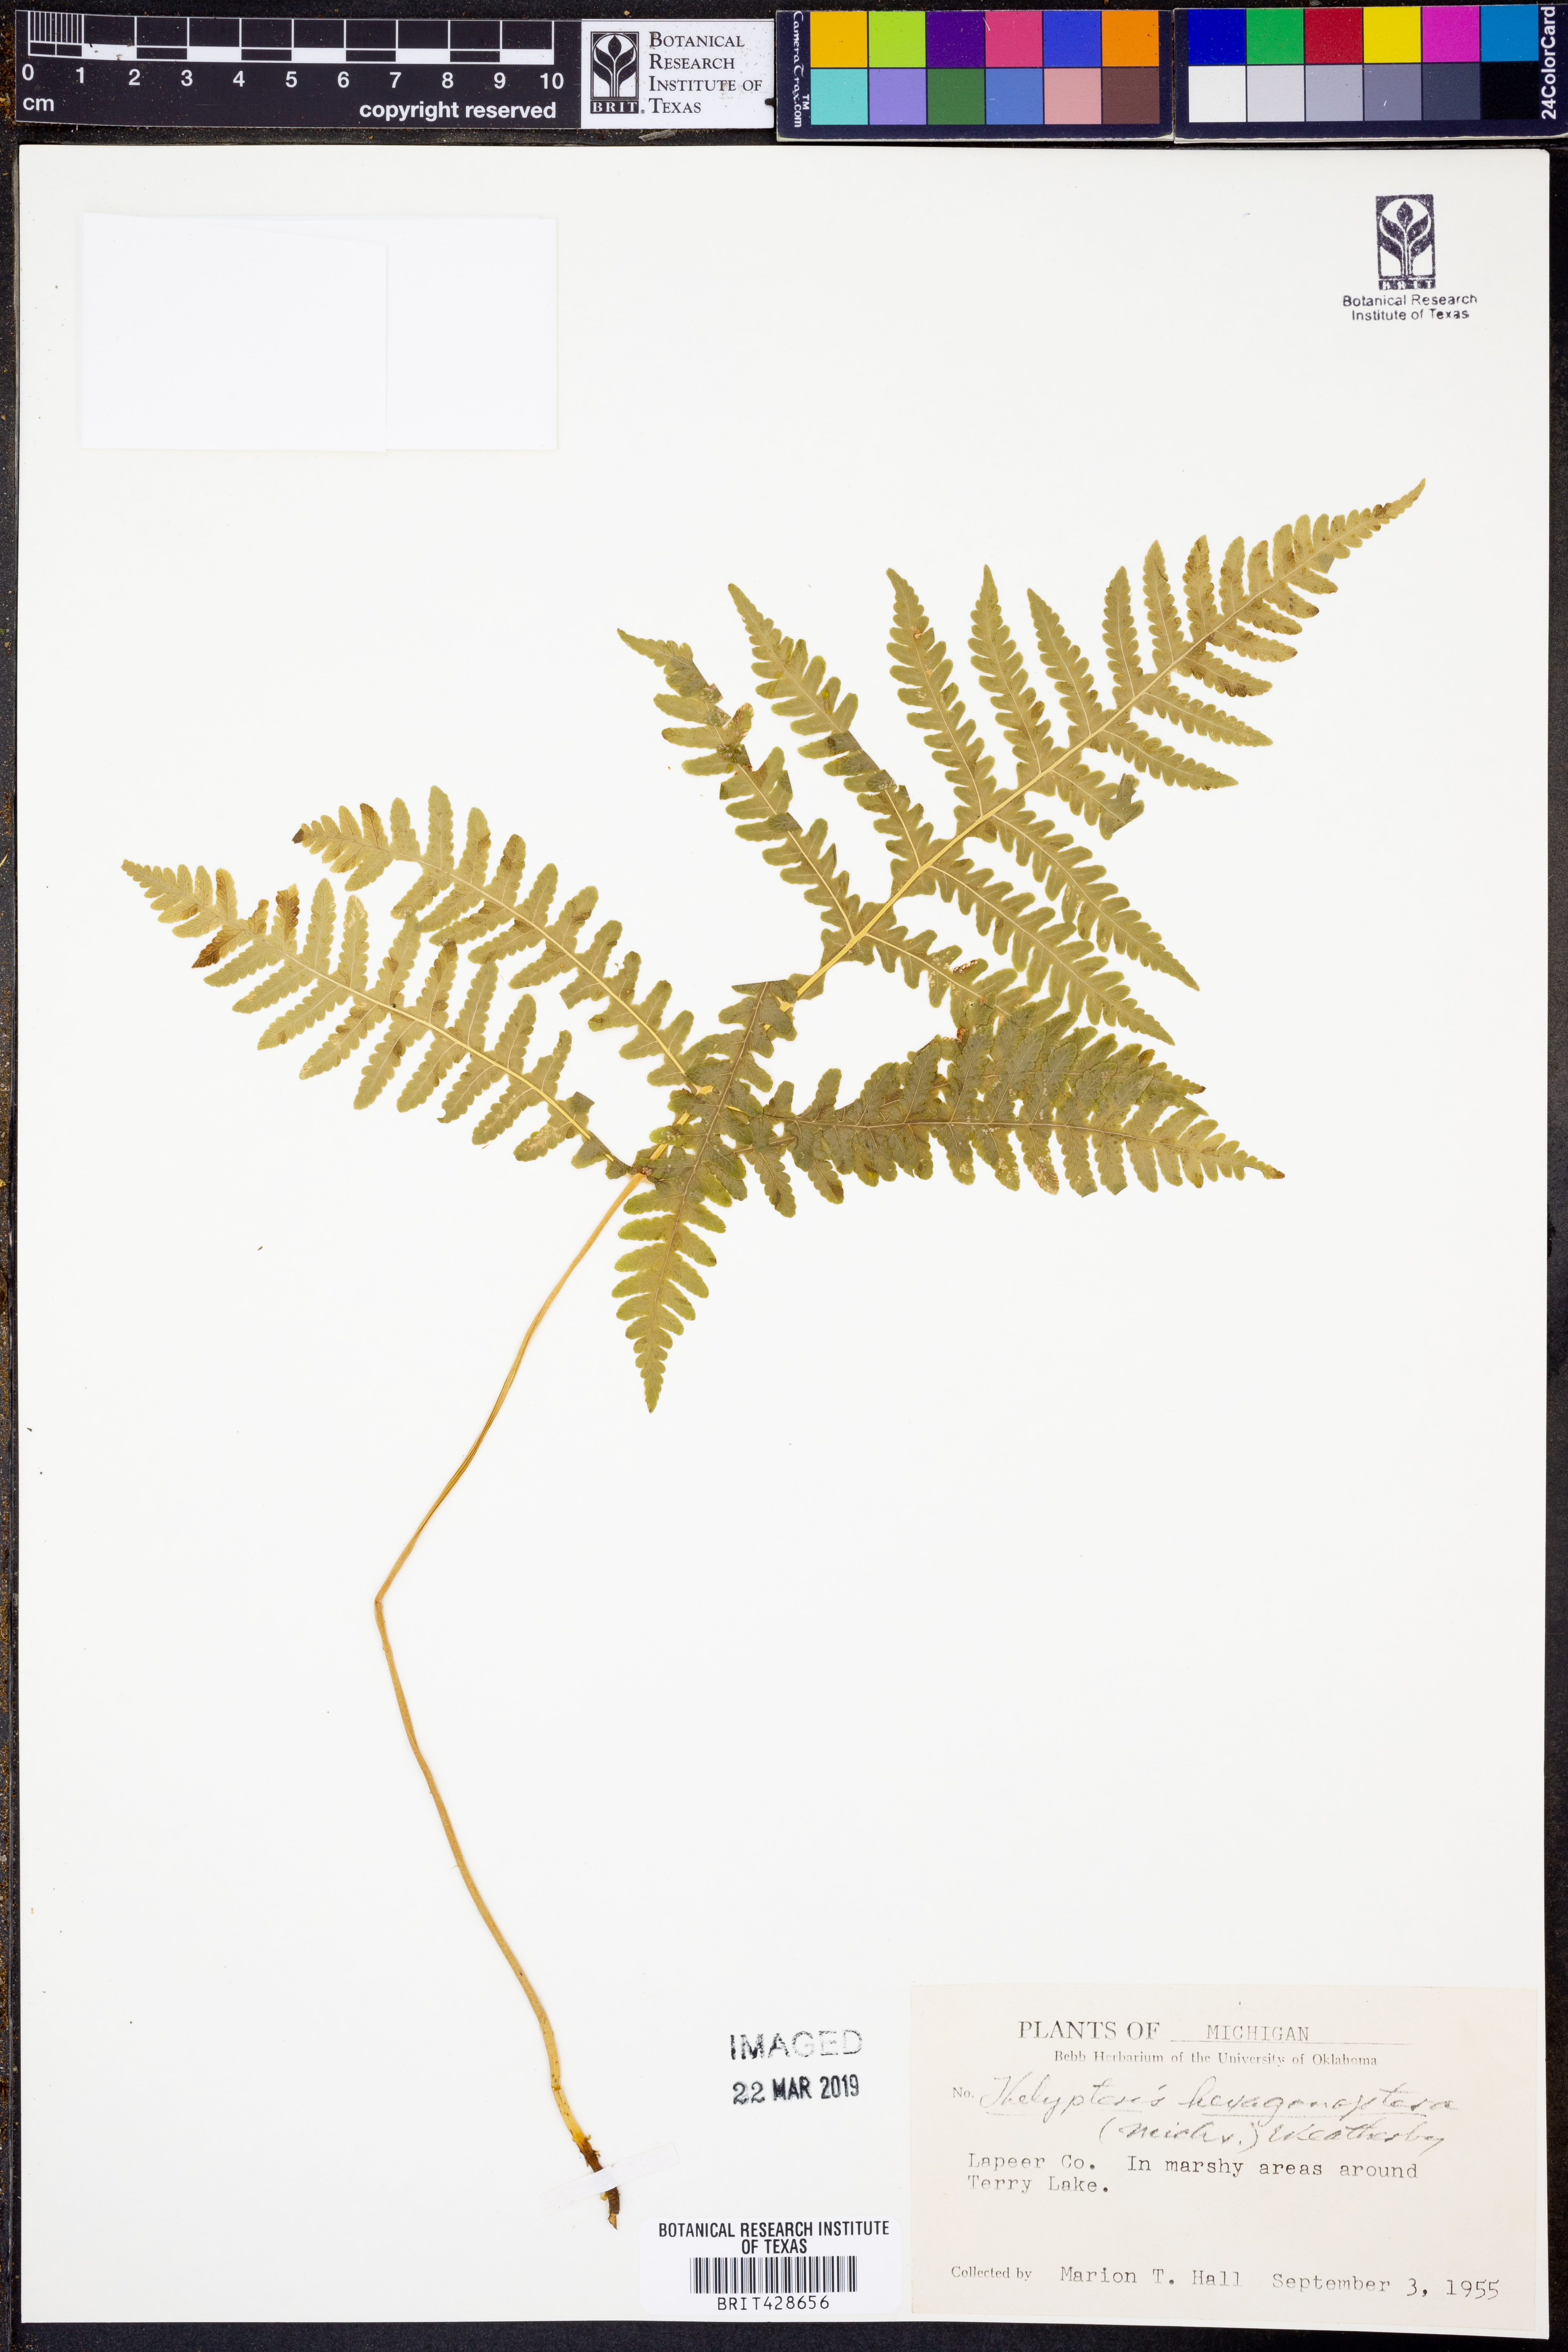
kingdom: Plantae
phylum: Tracheophyta
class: Polypodiopsida
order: Polypodiales
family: Thelypteridaceae
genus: Phegopteris
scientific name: Phegopteris hexagonoptera
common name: Broad beech fern
